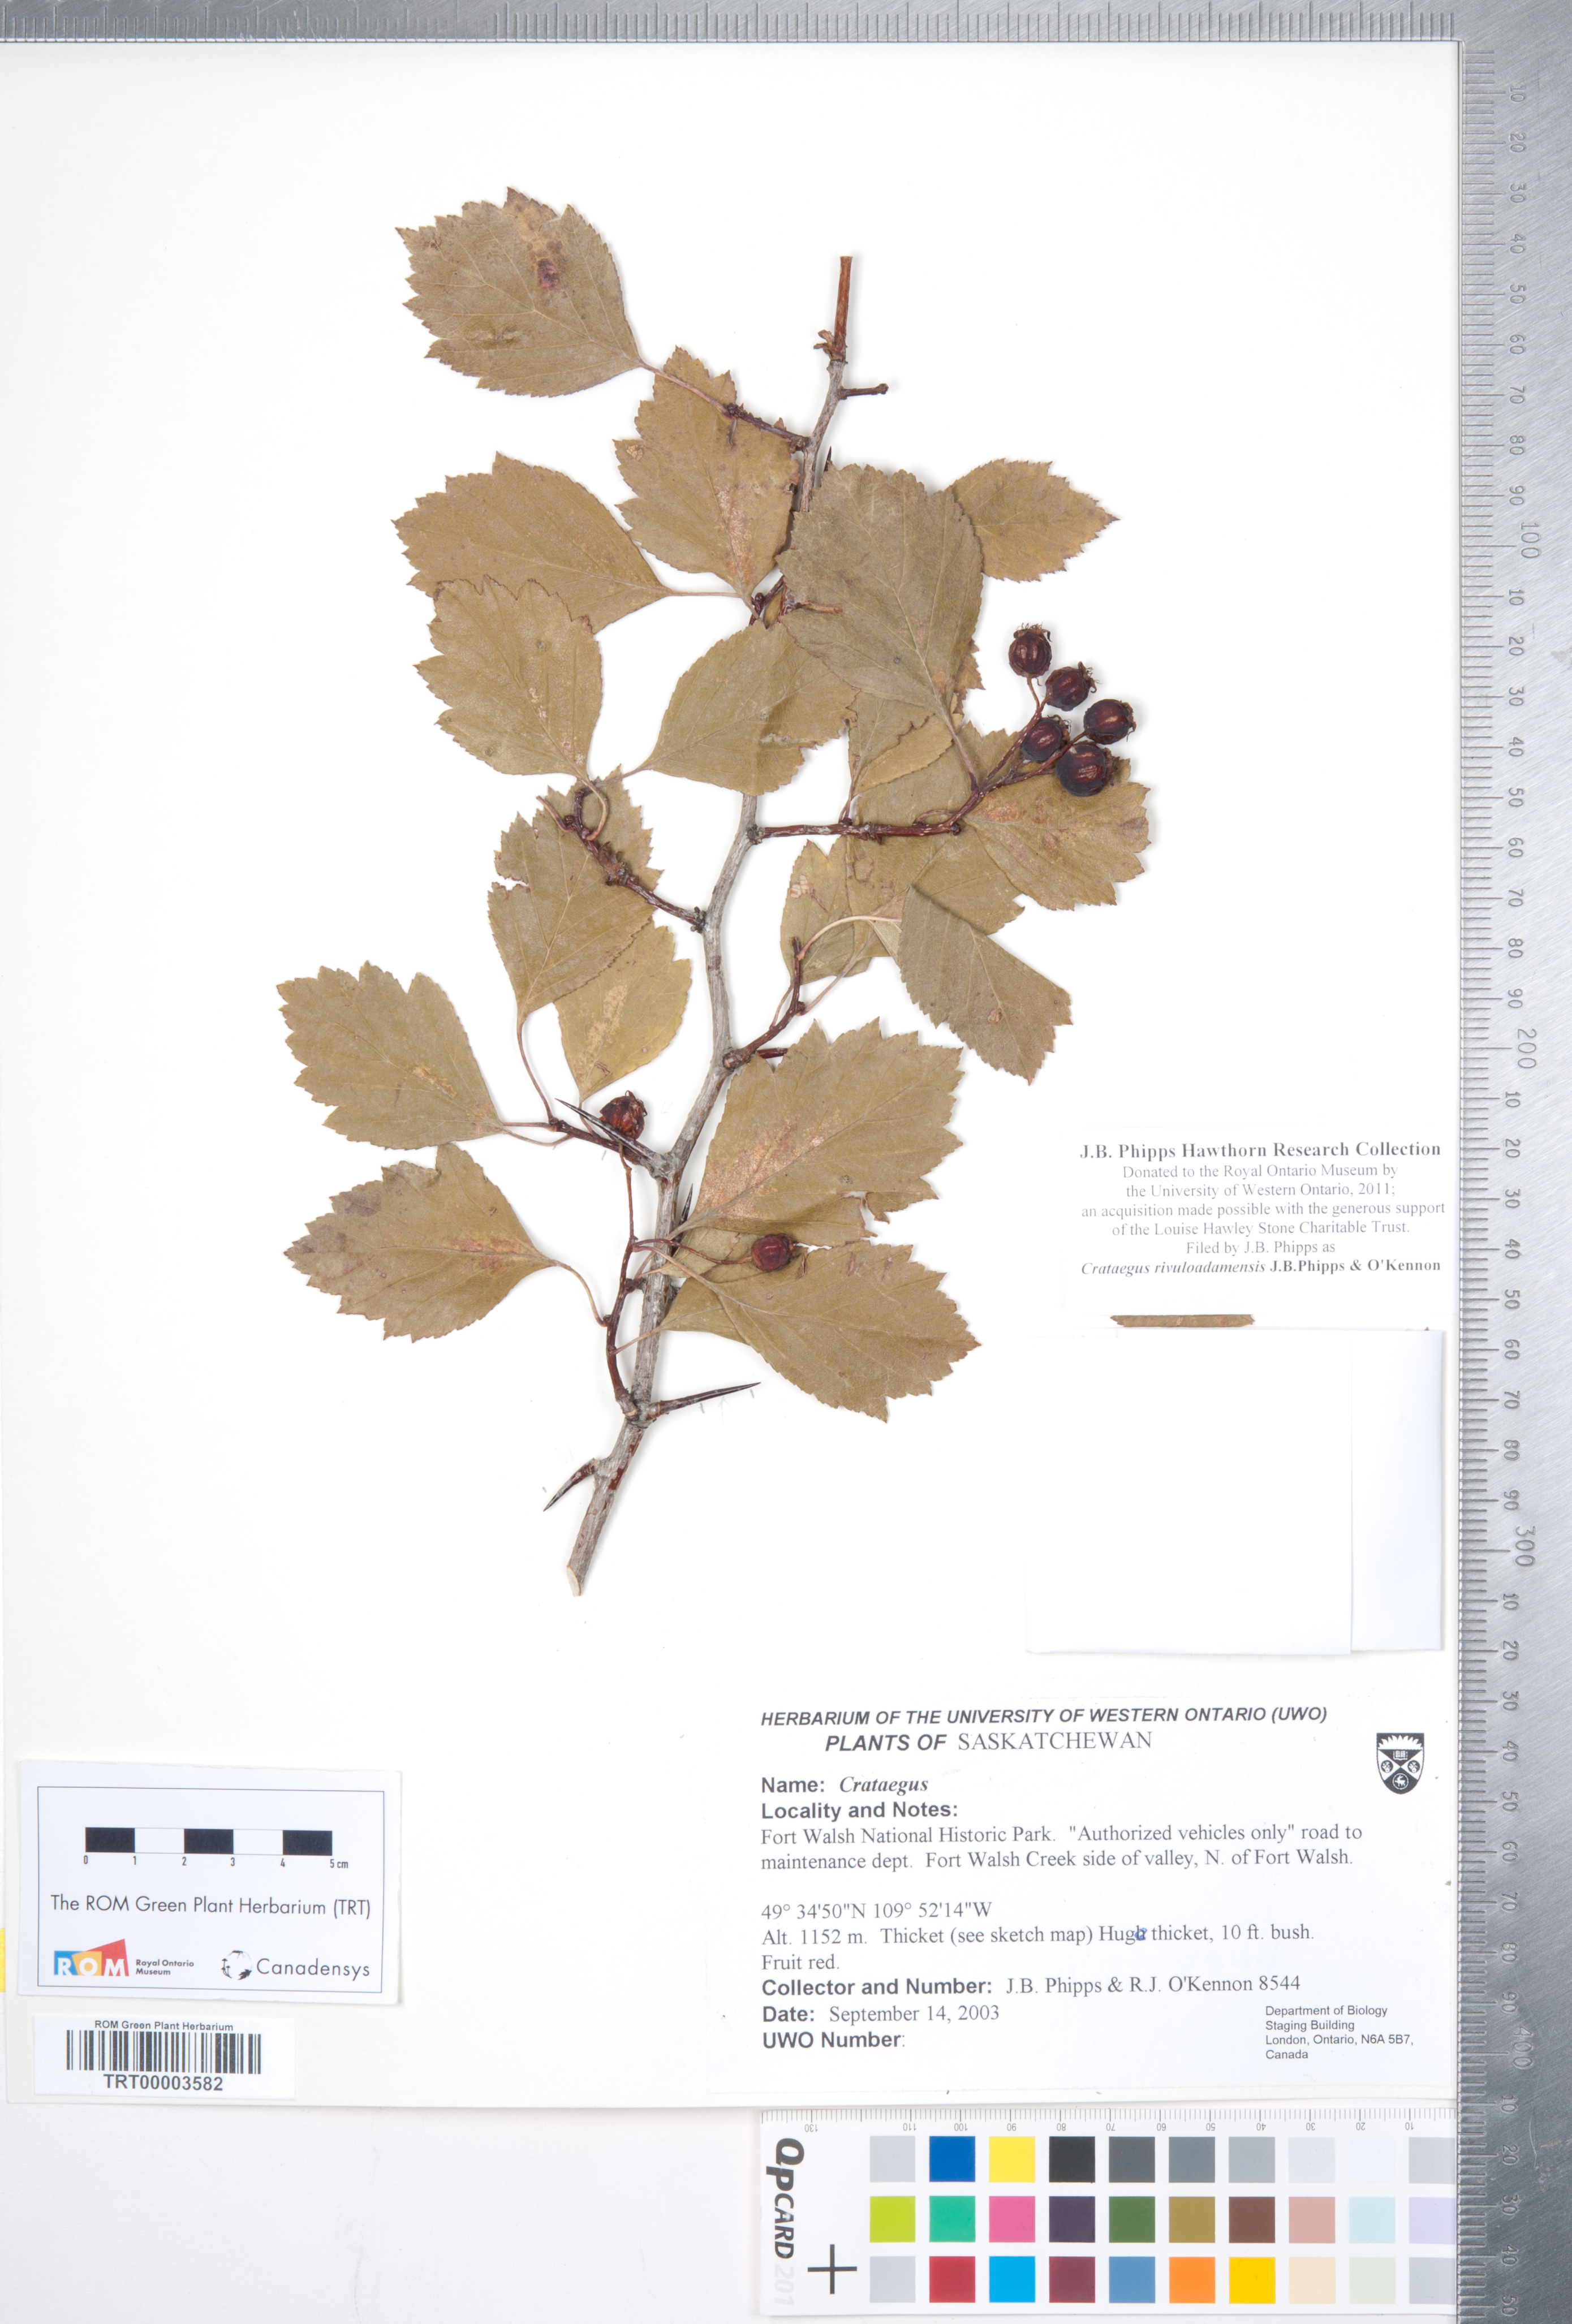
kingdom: Plantae
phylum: Tracheophyta
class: Magnoliopsida
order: Rosales
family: Rosaceae
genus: Crataegus
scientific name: Crataegus rivuloadamensis
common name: Adams creek hawthorn
